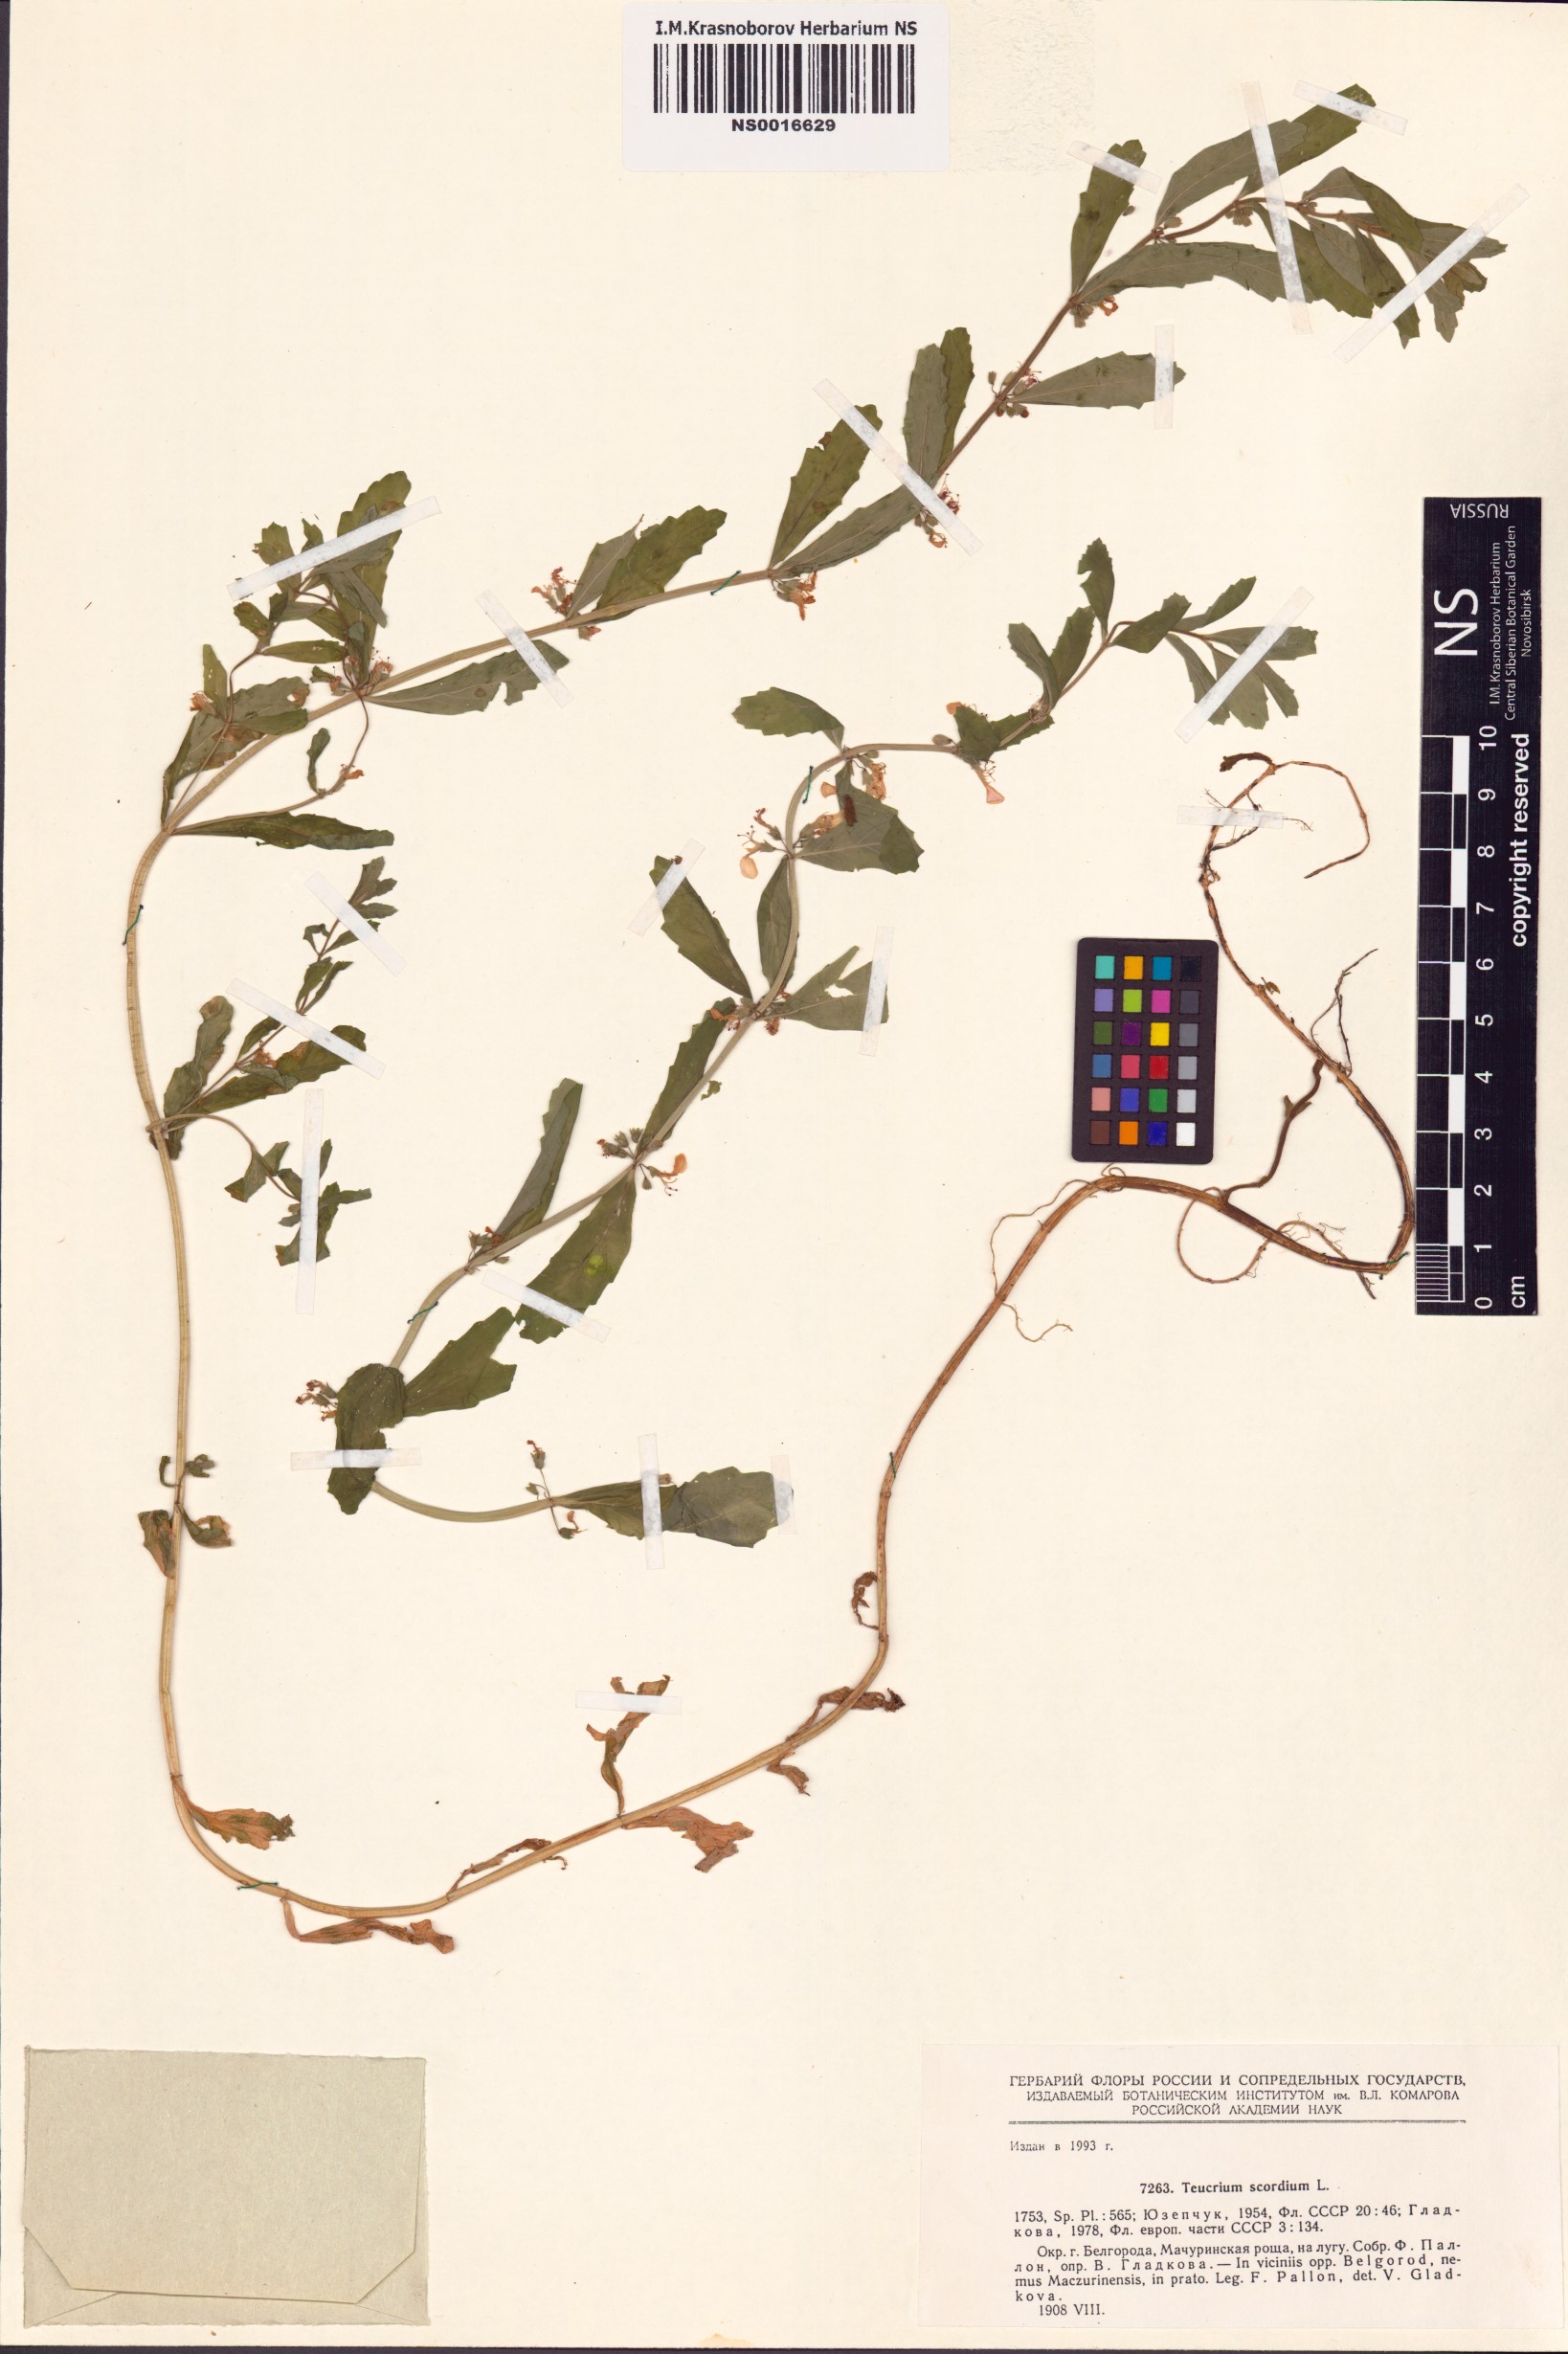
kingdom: Plantae
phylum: Tracheophyta
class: Magnoliopsida
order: Lamiales
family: Lamiaceae
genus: Teucrium
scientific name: Teucrium scordium
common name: Water germander
